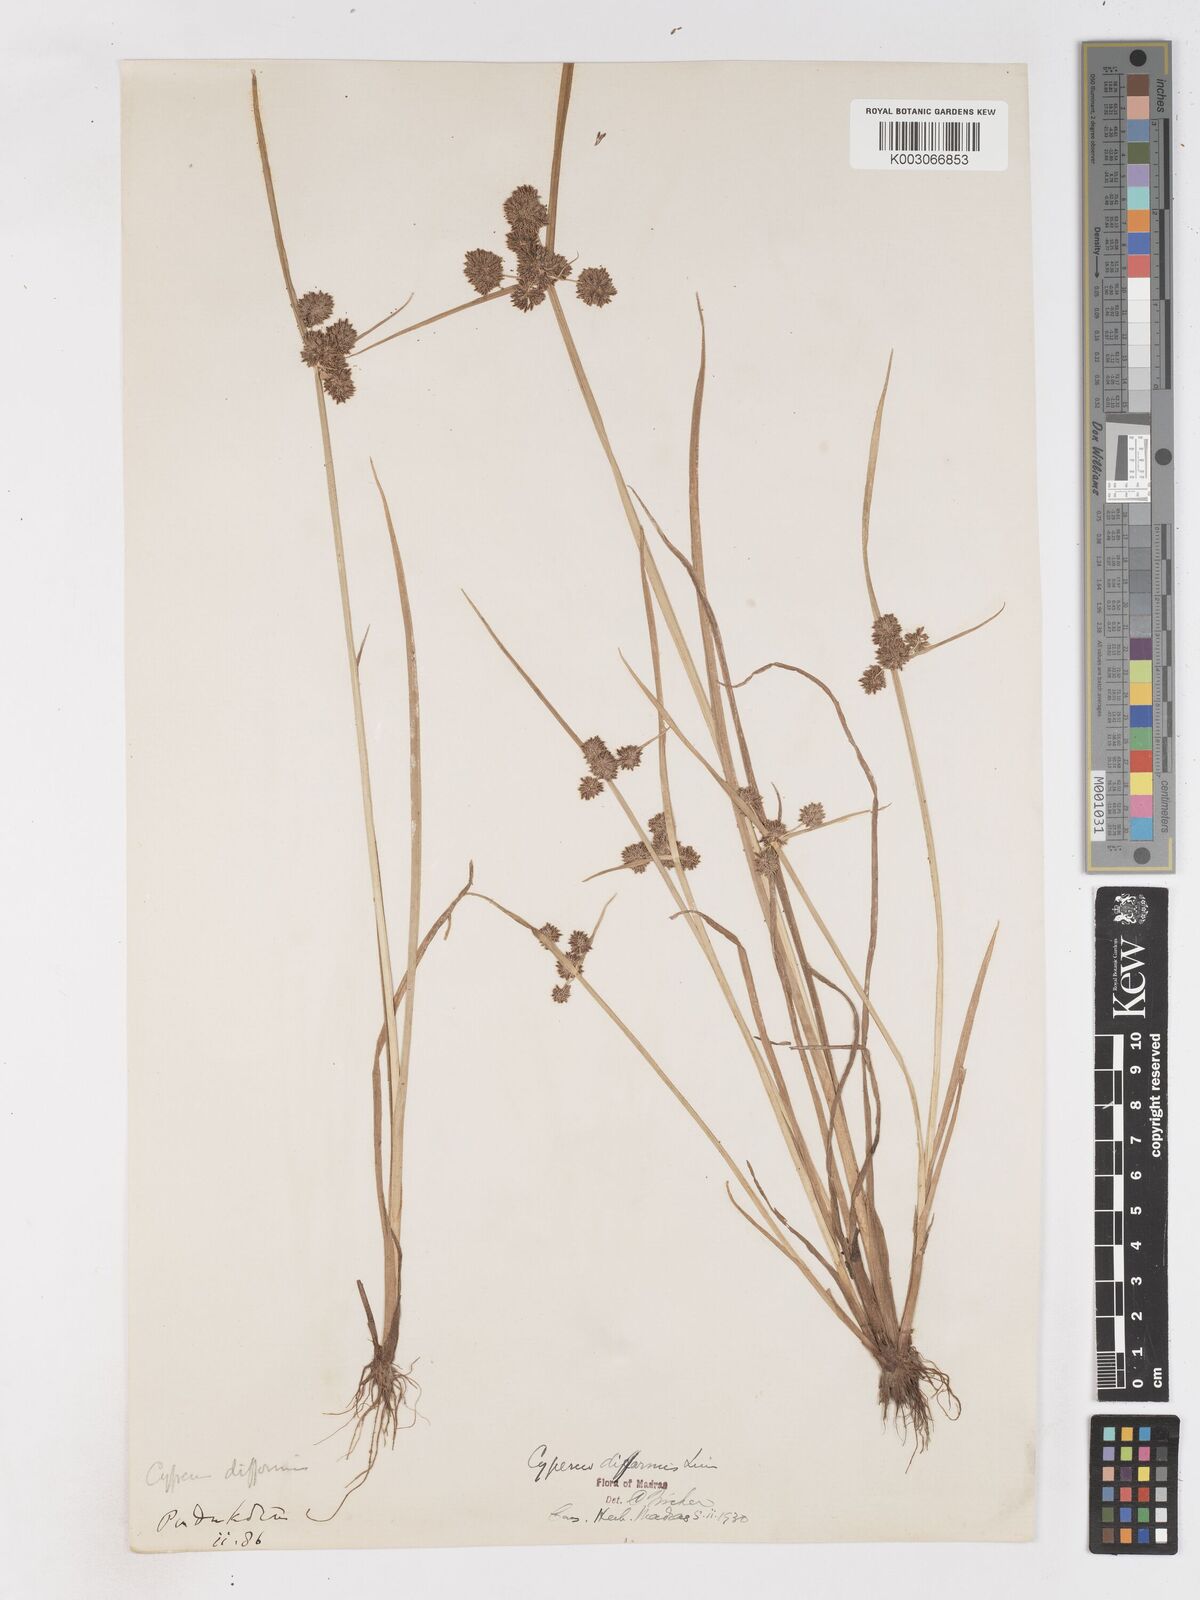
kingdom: Plantae
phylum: Tracheophyta
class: Liliopsida
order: Poales
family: Cyperaceae
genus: Cyperus
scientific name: Cyperus difformis
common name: Variable flatsedge
